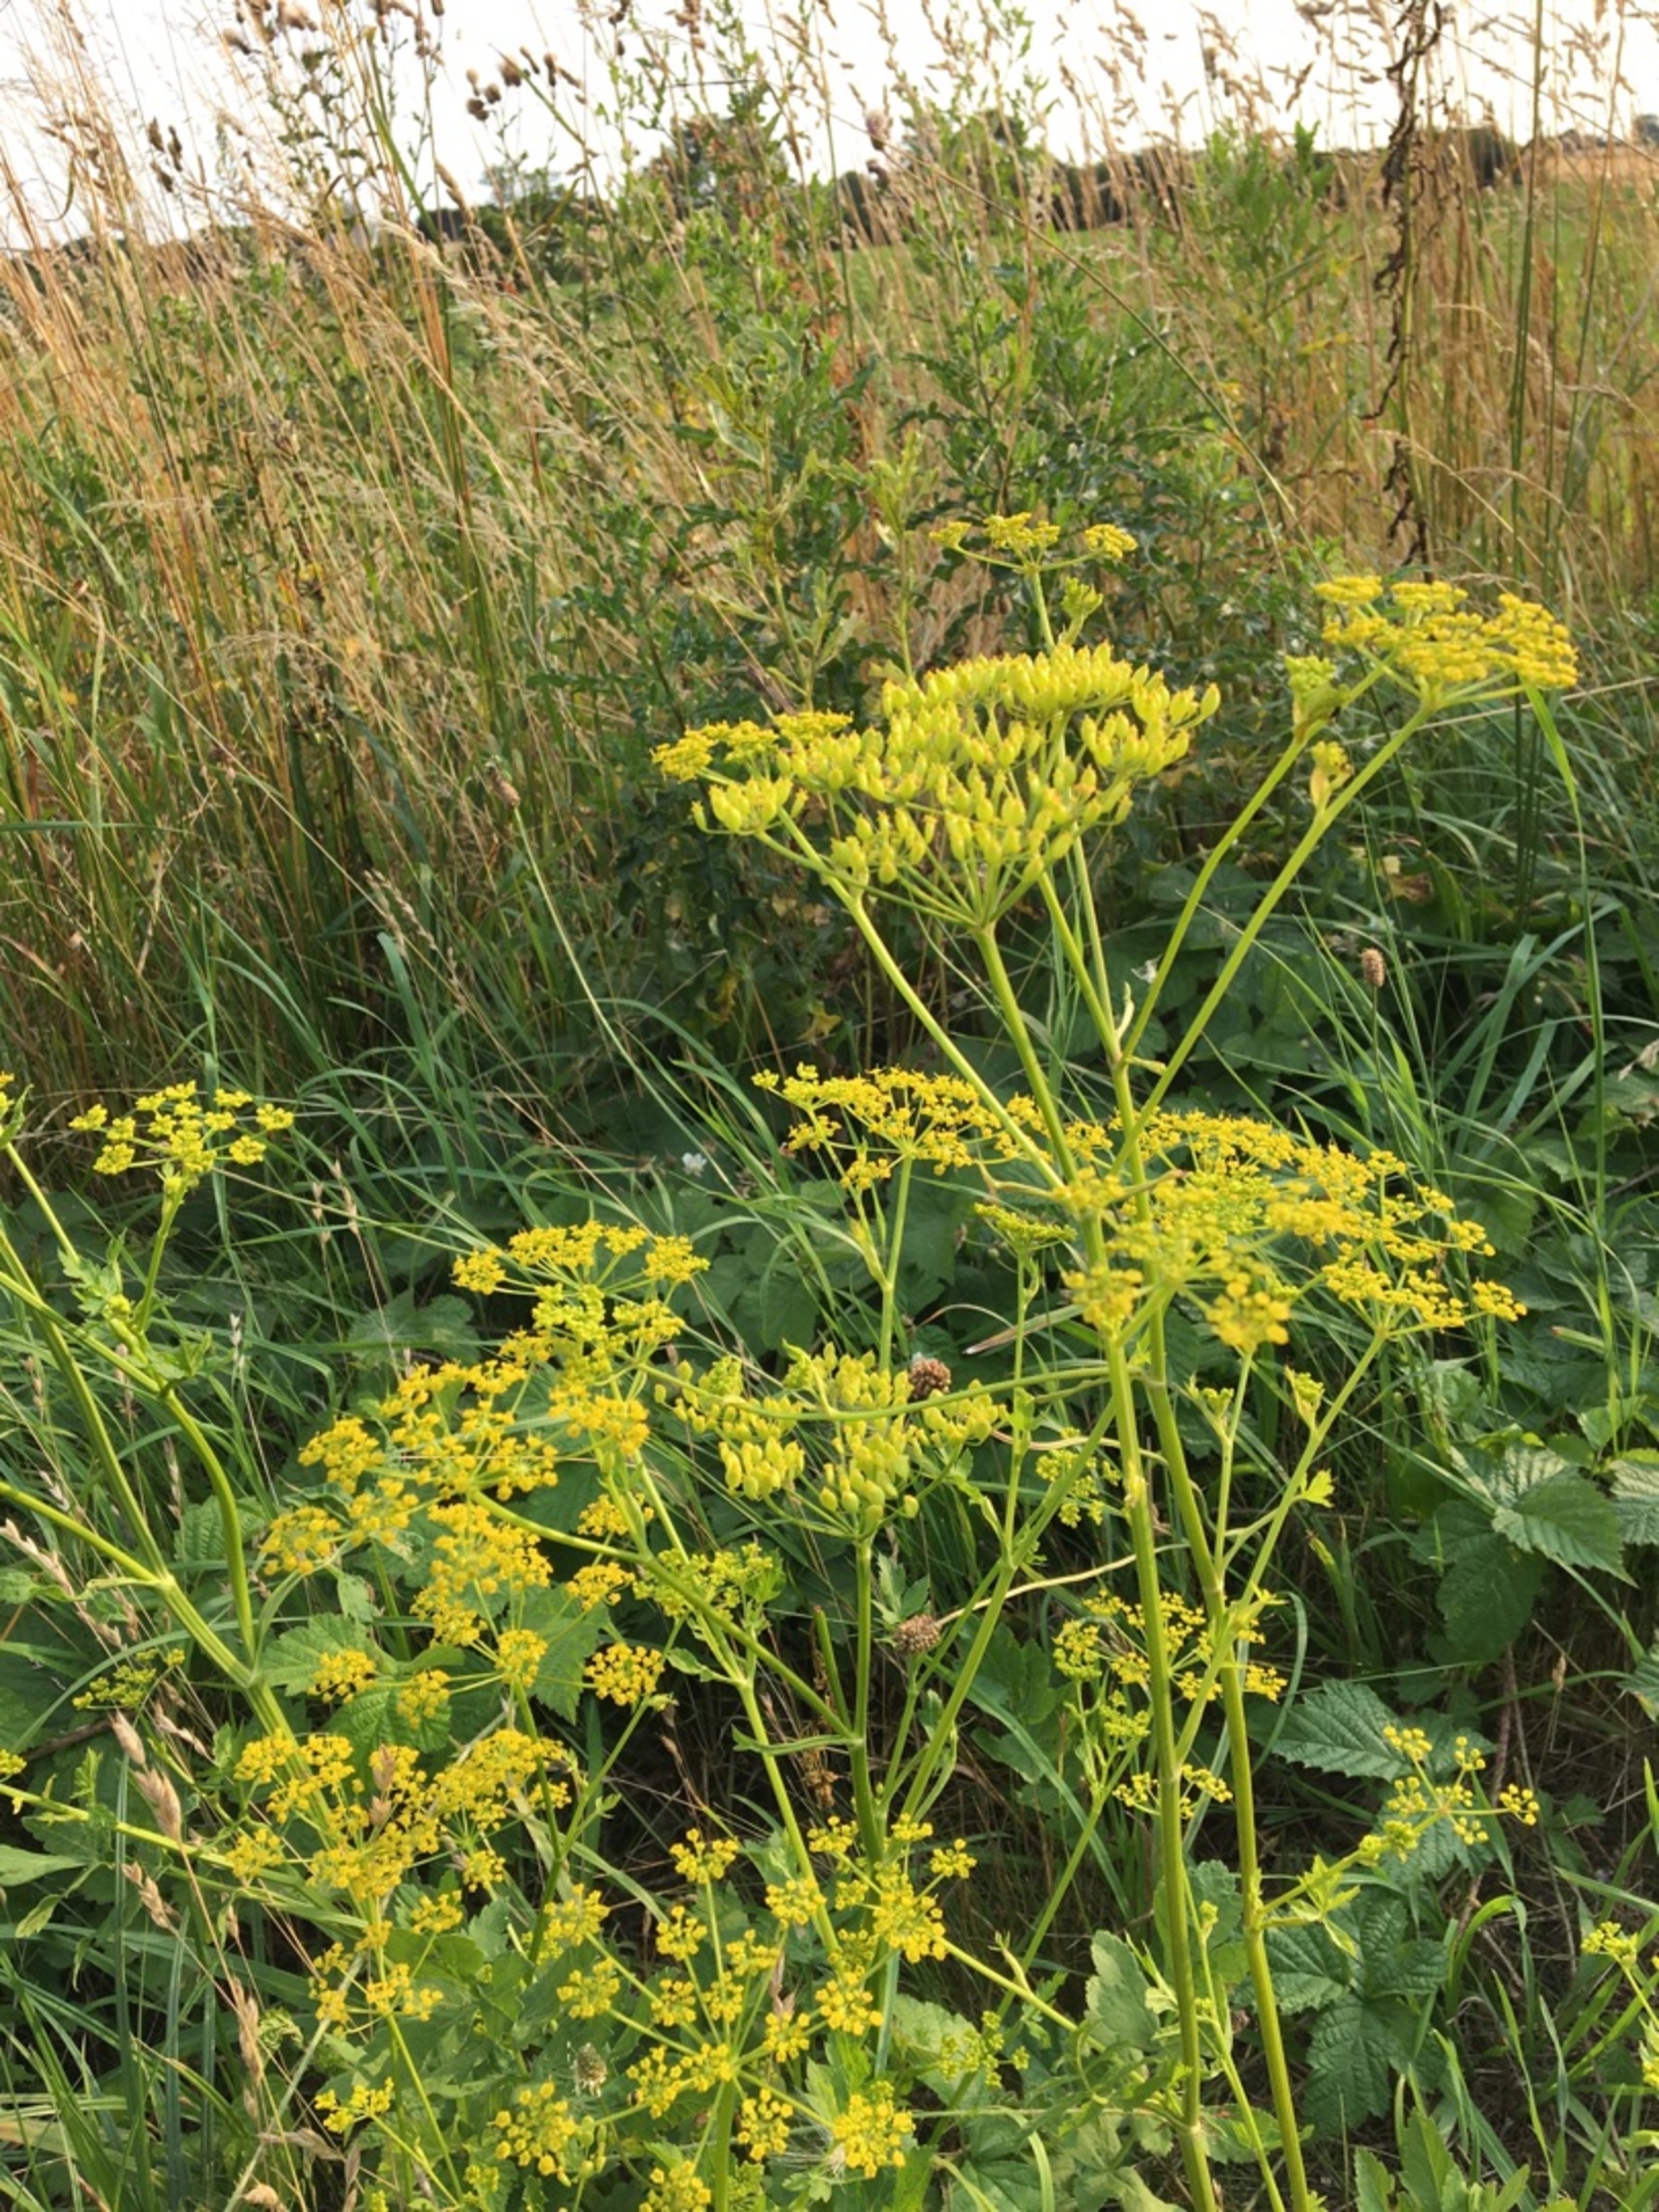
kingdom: Plantae
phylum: Tracheophyta
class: Magnoliopsida
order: Apiales
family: Apiaceae
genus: Pastinaca
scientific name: Pastinaca sativa
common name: Pastinak
